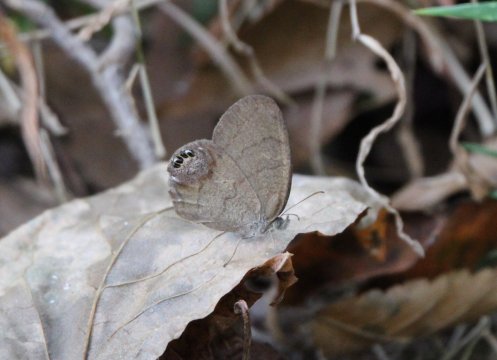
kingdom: Animalia
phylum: Arthropoda
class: Insecta
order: Lepidoptera
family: Nymphalidae
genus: Euptychia
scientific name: Euptychia cornelius
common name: Gemmed Satyr
